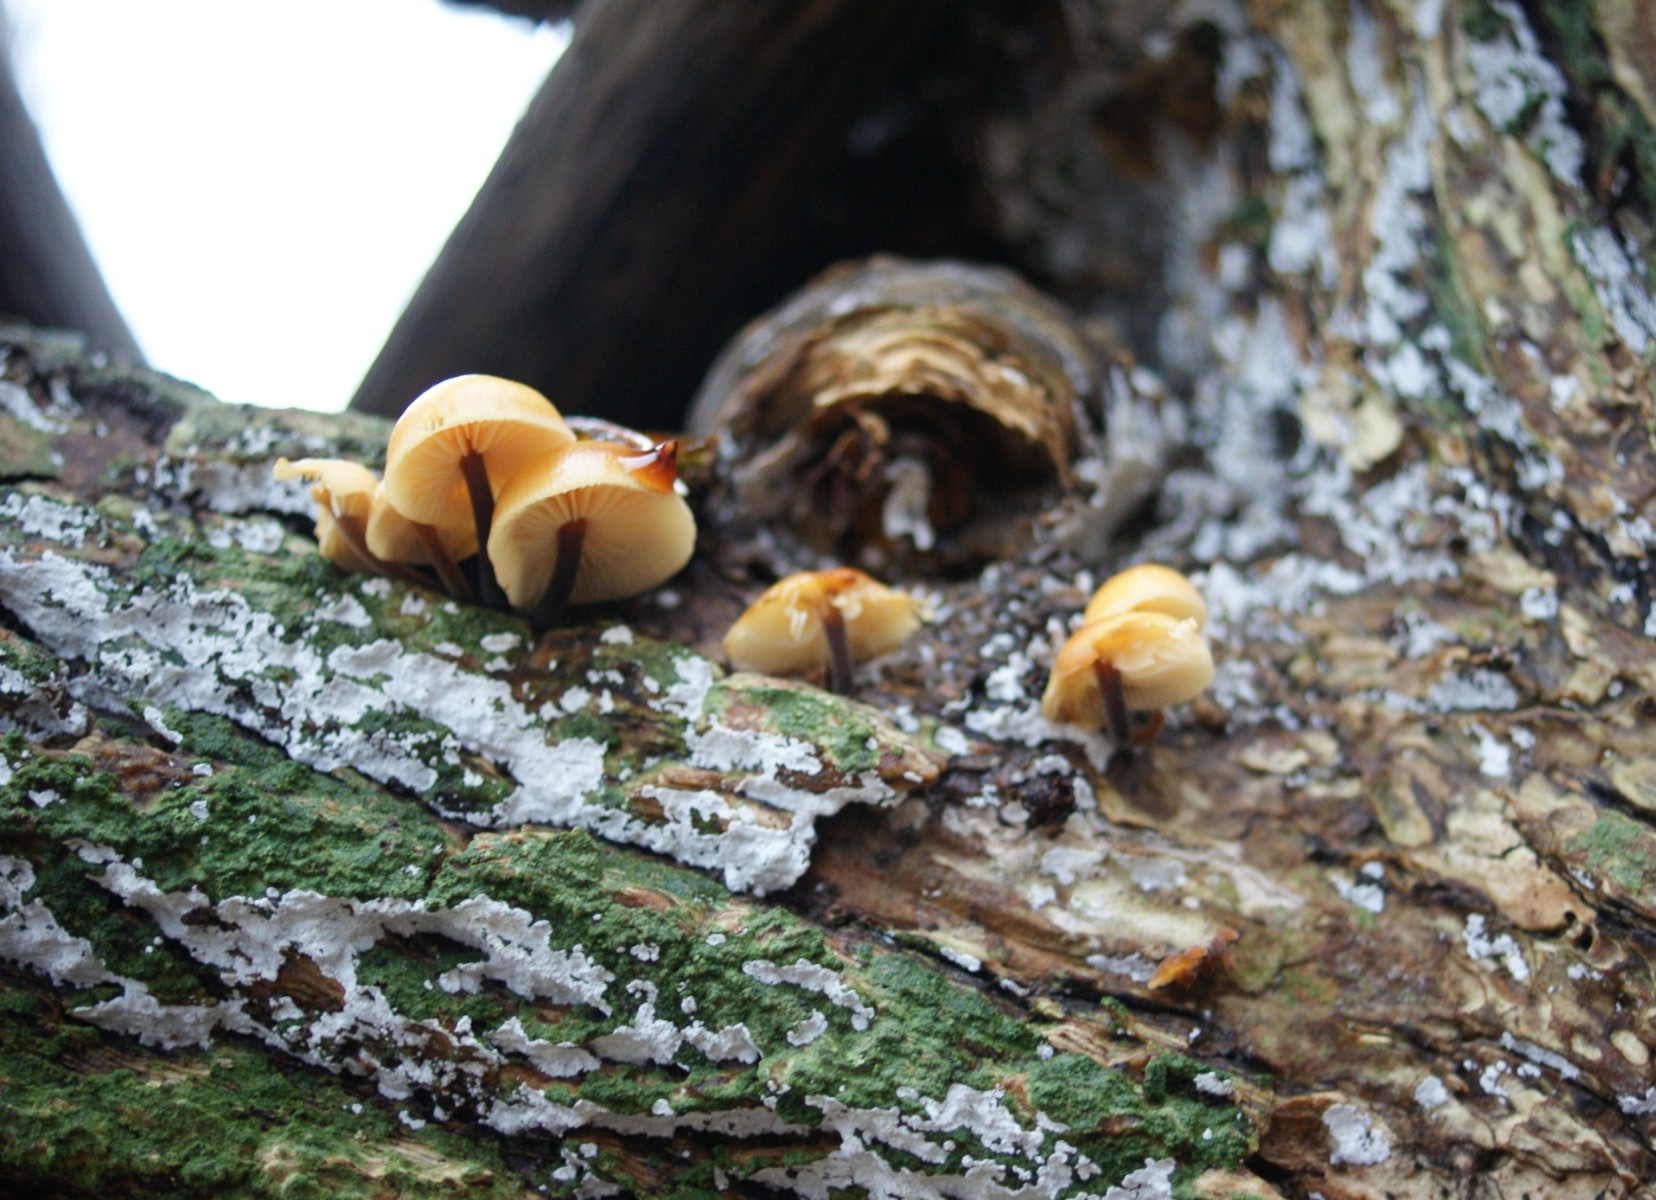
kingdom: Fungi
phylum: Basidiomycota
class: Agaricomycetes
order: Agaricales
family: Physalacriaceae
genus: Flammulina
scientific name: Flammulina velutipes
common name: gul fløjlsfod
